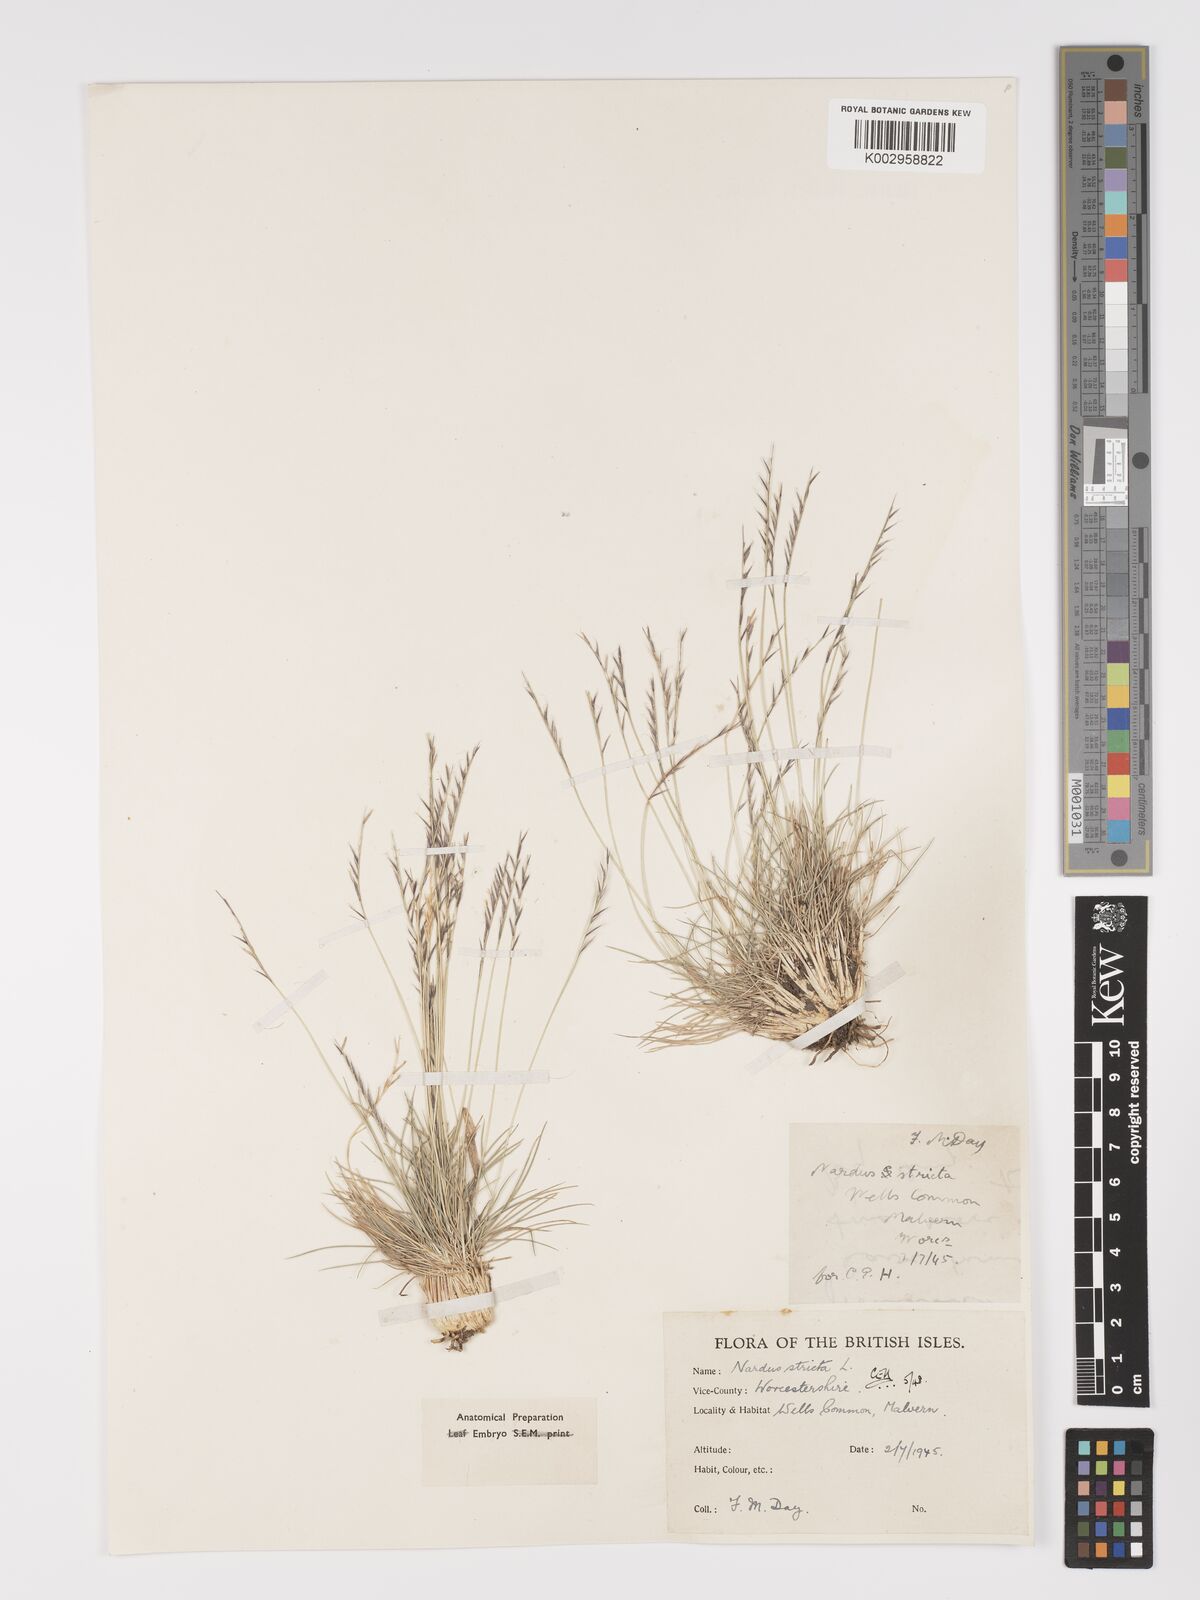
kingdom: Plantae
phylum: Tracheophyta
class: Liliopsida
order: Poales
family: Poaceae
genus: Nardus
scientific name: Nardus stricta
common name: Mat-grass
